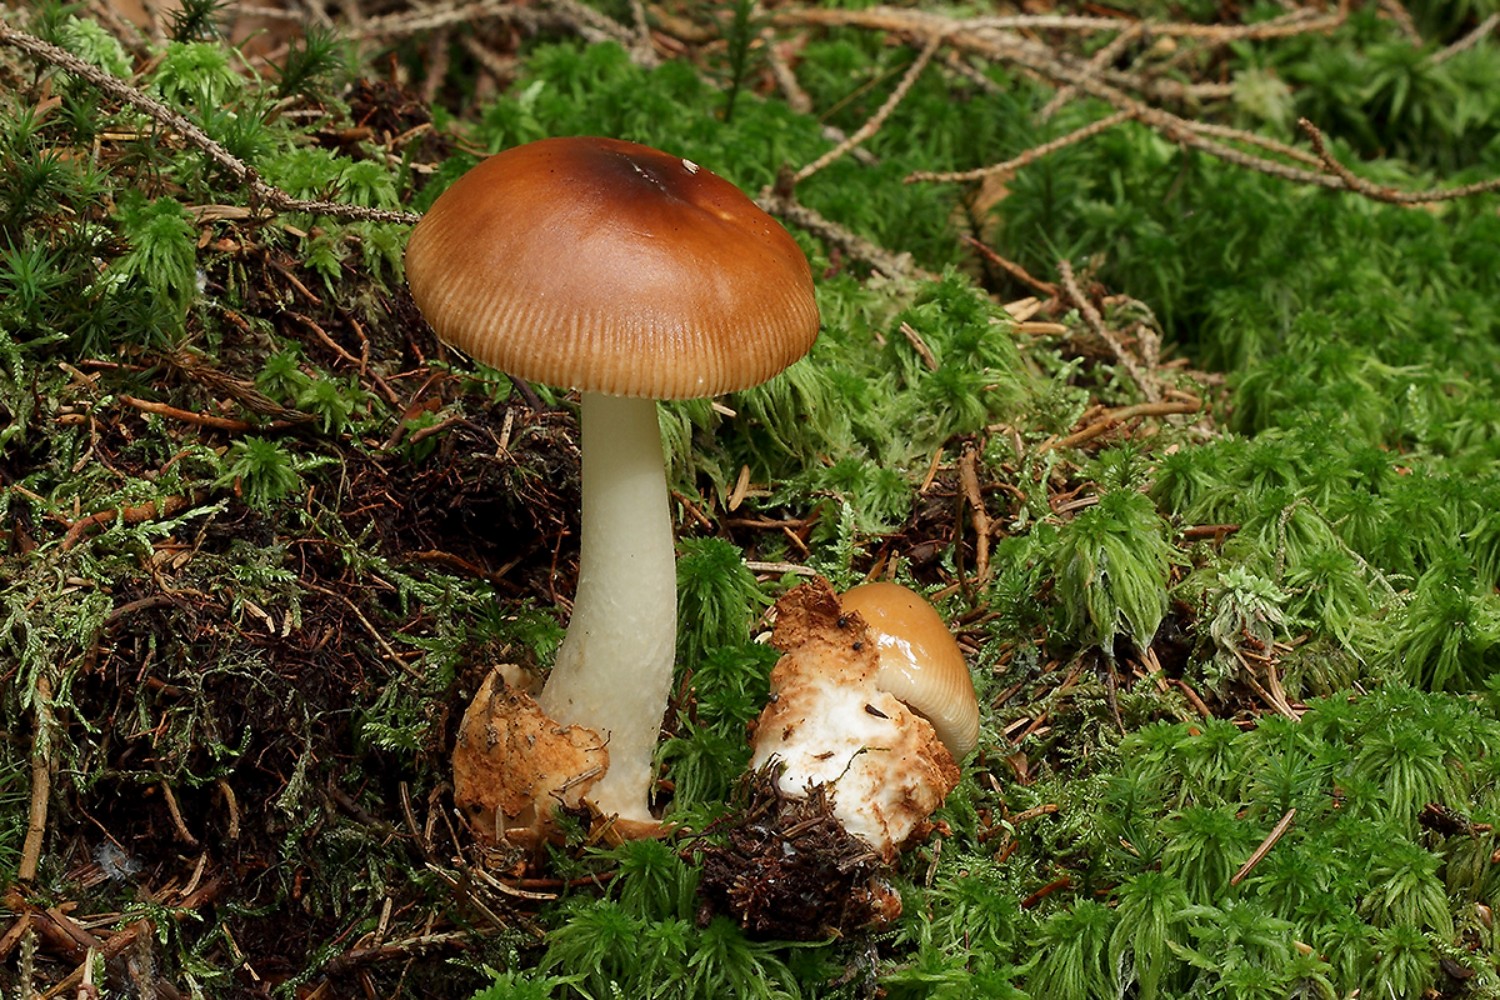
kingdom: Fungi
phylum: Basidiomycota
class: Agaricomycetes
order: Agaricales
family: Amanitaceae
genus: Amanita
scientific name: Amanita fulva
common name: brun kam-fluesvamp
